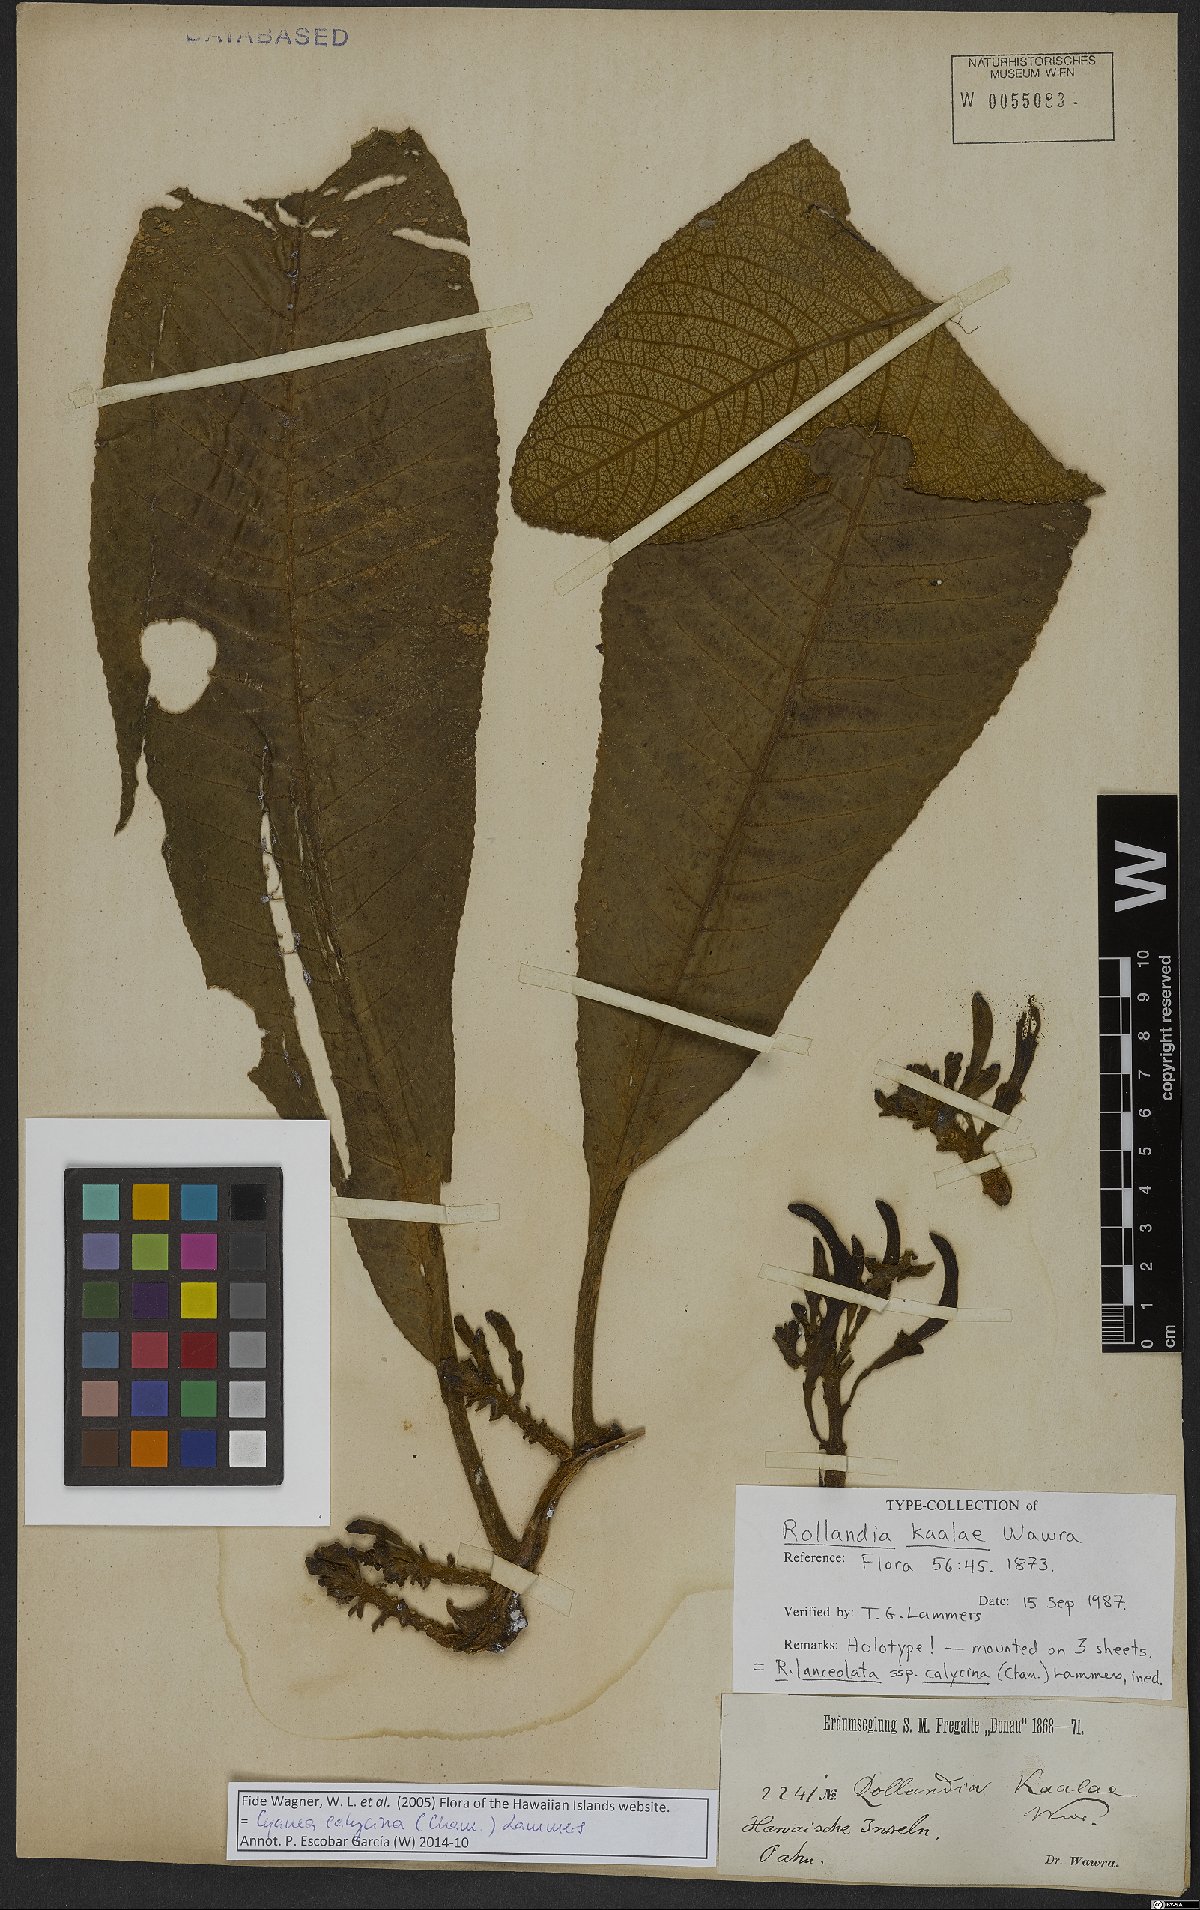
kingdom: Plantae
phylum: Tracheophyta
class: Magnoliopsida
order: Asterales
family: Campanulaceae
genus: Cyanea
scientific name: Cyanea calycina
